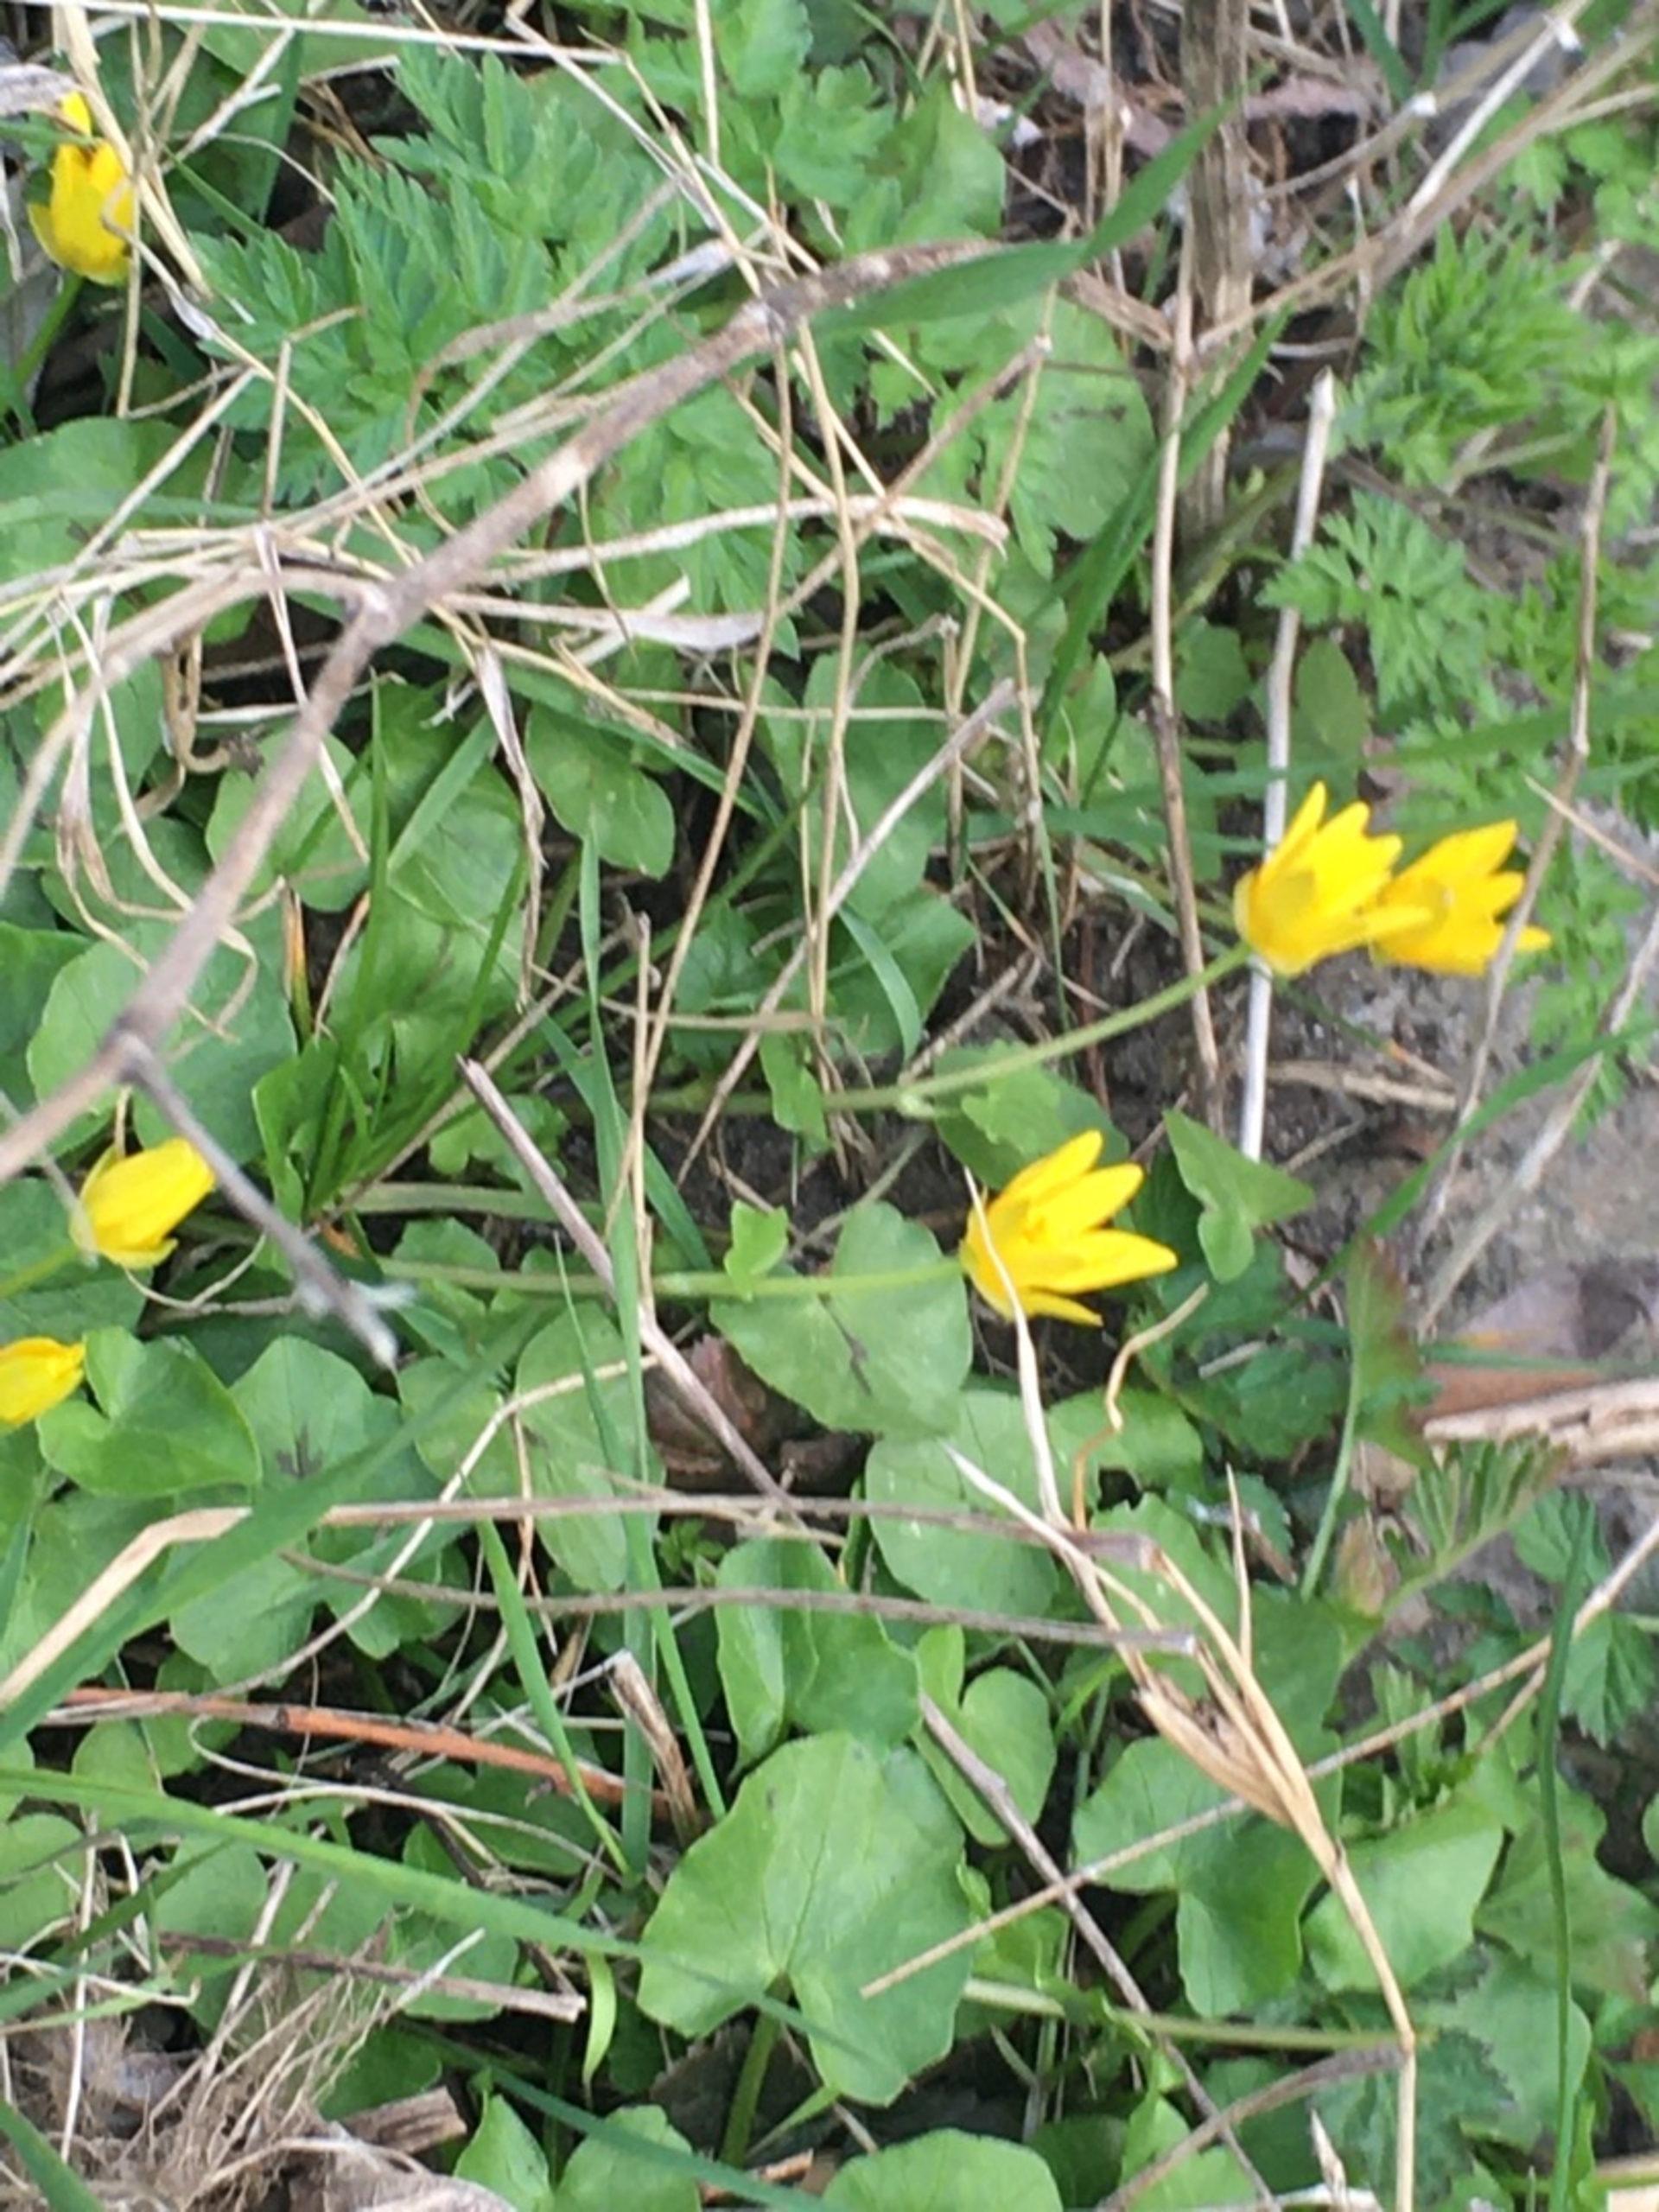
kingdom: Plantae
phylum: Tracheophyta
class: Magnoliopsida
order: Ranunculales
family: Ranunculaceae
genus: Ficaria
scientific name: Ficaria verna
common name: Vorterod
